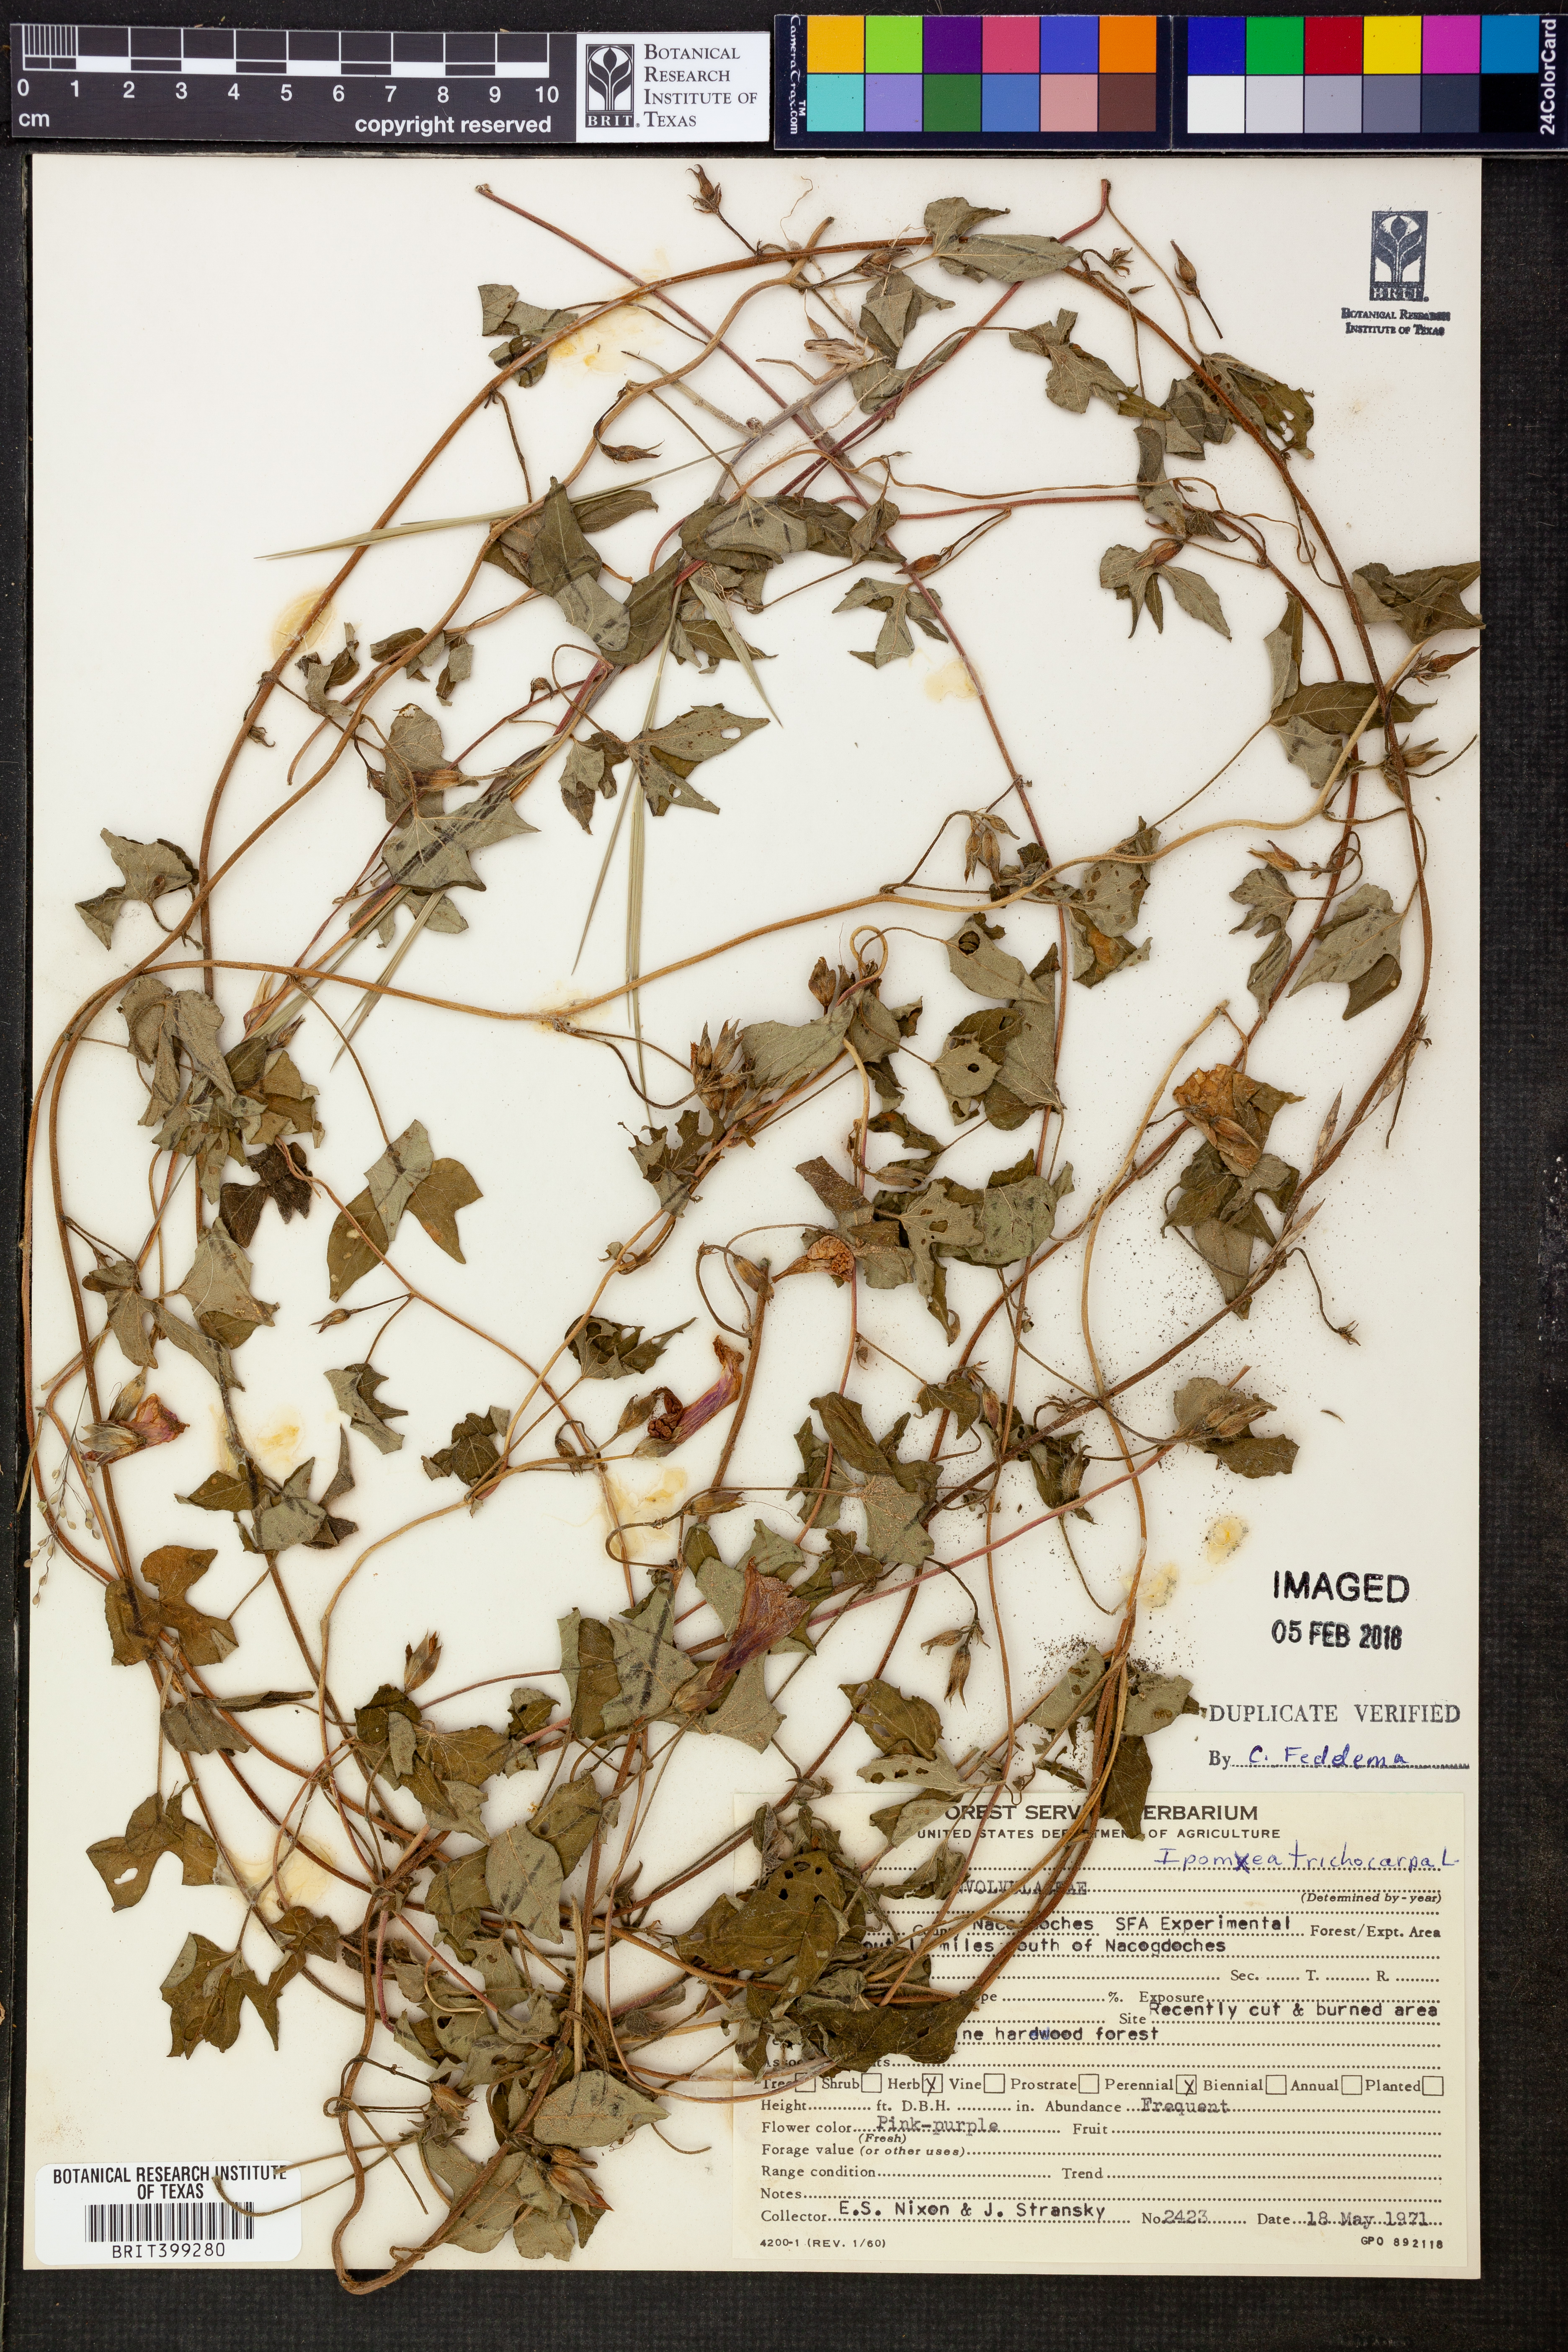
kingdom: Plantae
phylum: Tracheophyta
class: Magnoliopsida
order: Solanales
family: Convolvulaceae
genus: Ipomoea
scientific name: Ipomoea cordatotriloba
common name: Cotton morning glory
